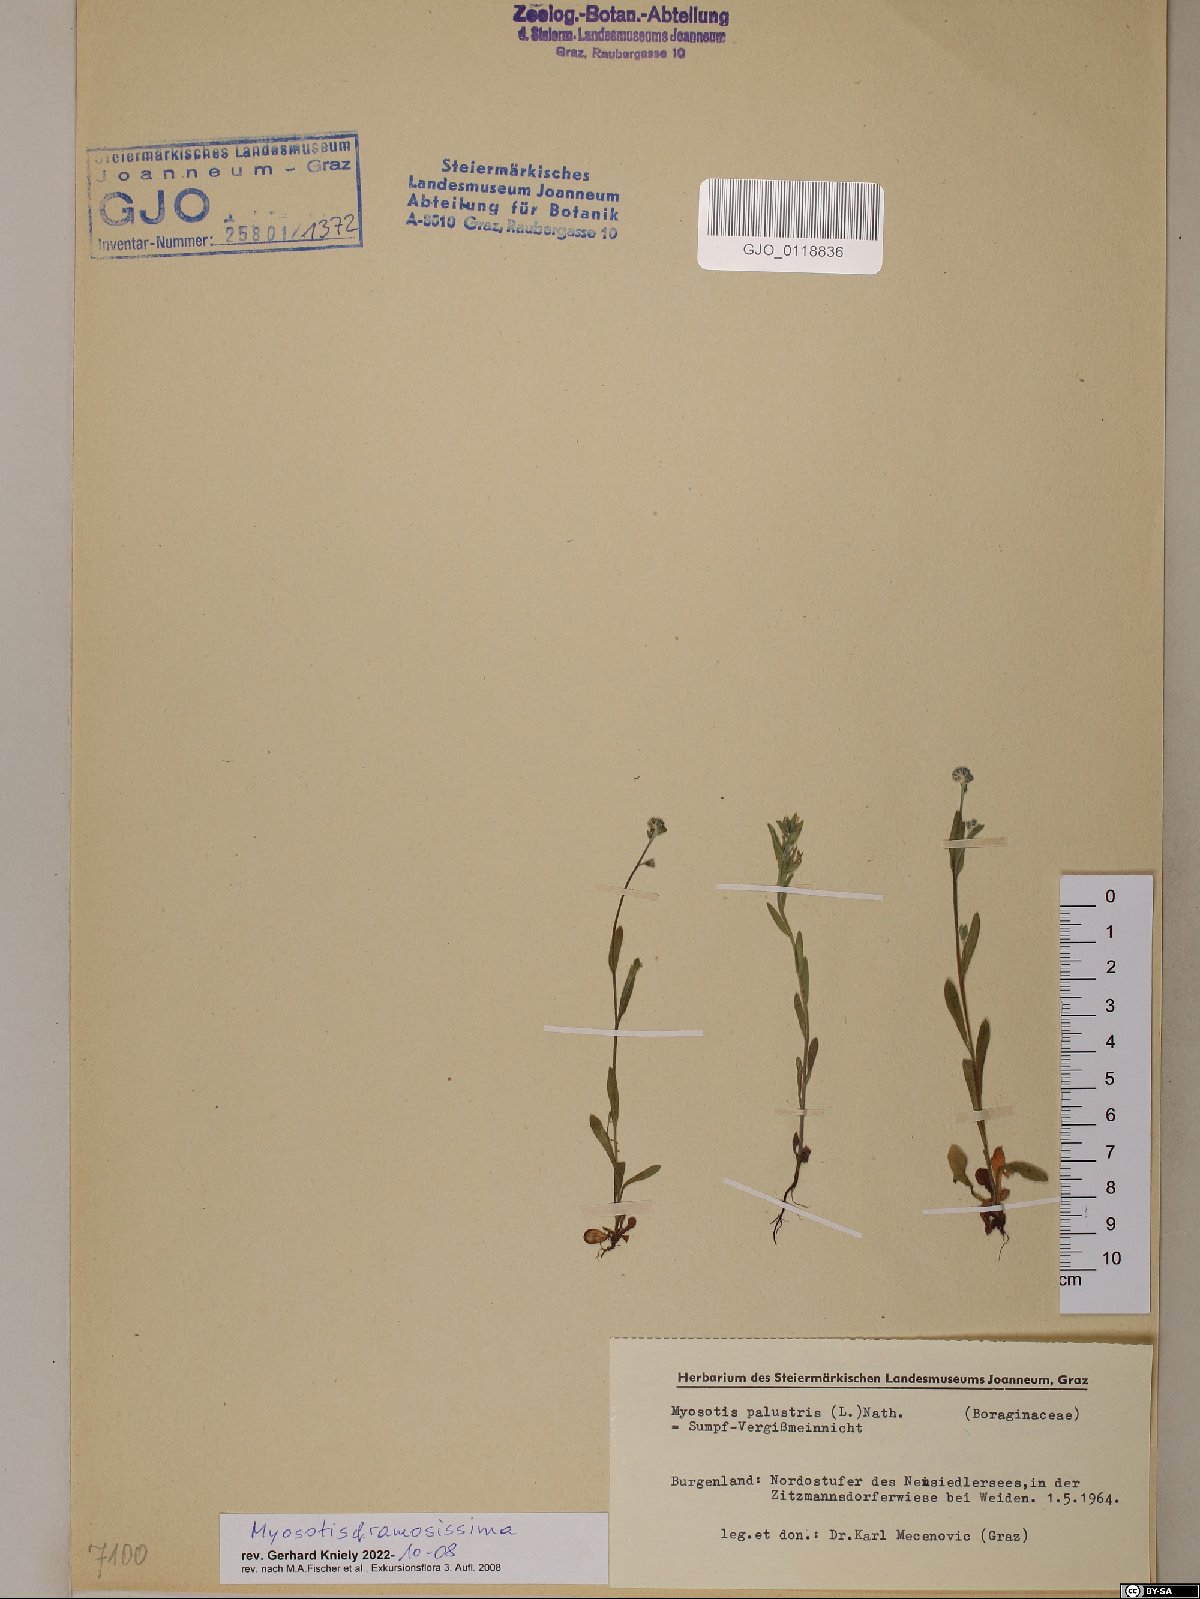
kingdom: Plantae
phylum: Tracheophyta
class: Magnoliopsida
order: Boraginales
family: Boraginaceae
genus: Myosotis
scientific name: Myosotis ramosissima
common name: Early forget-me-not
